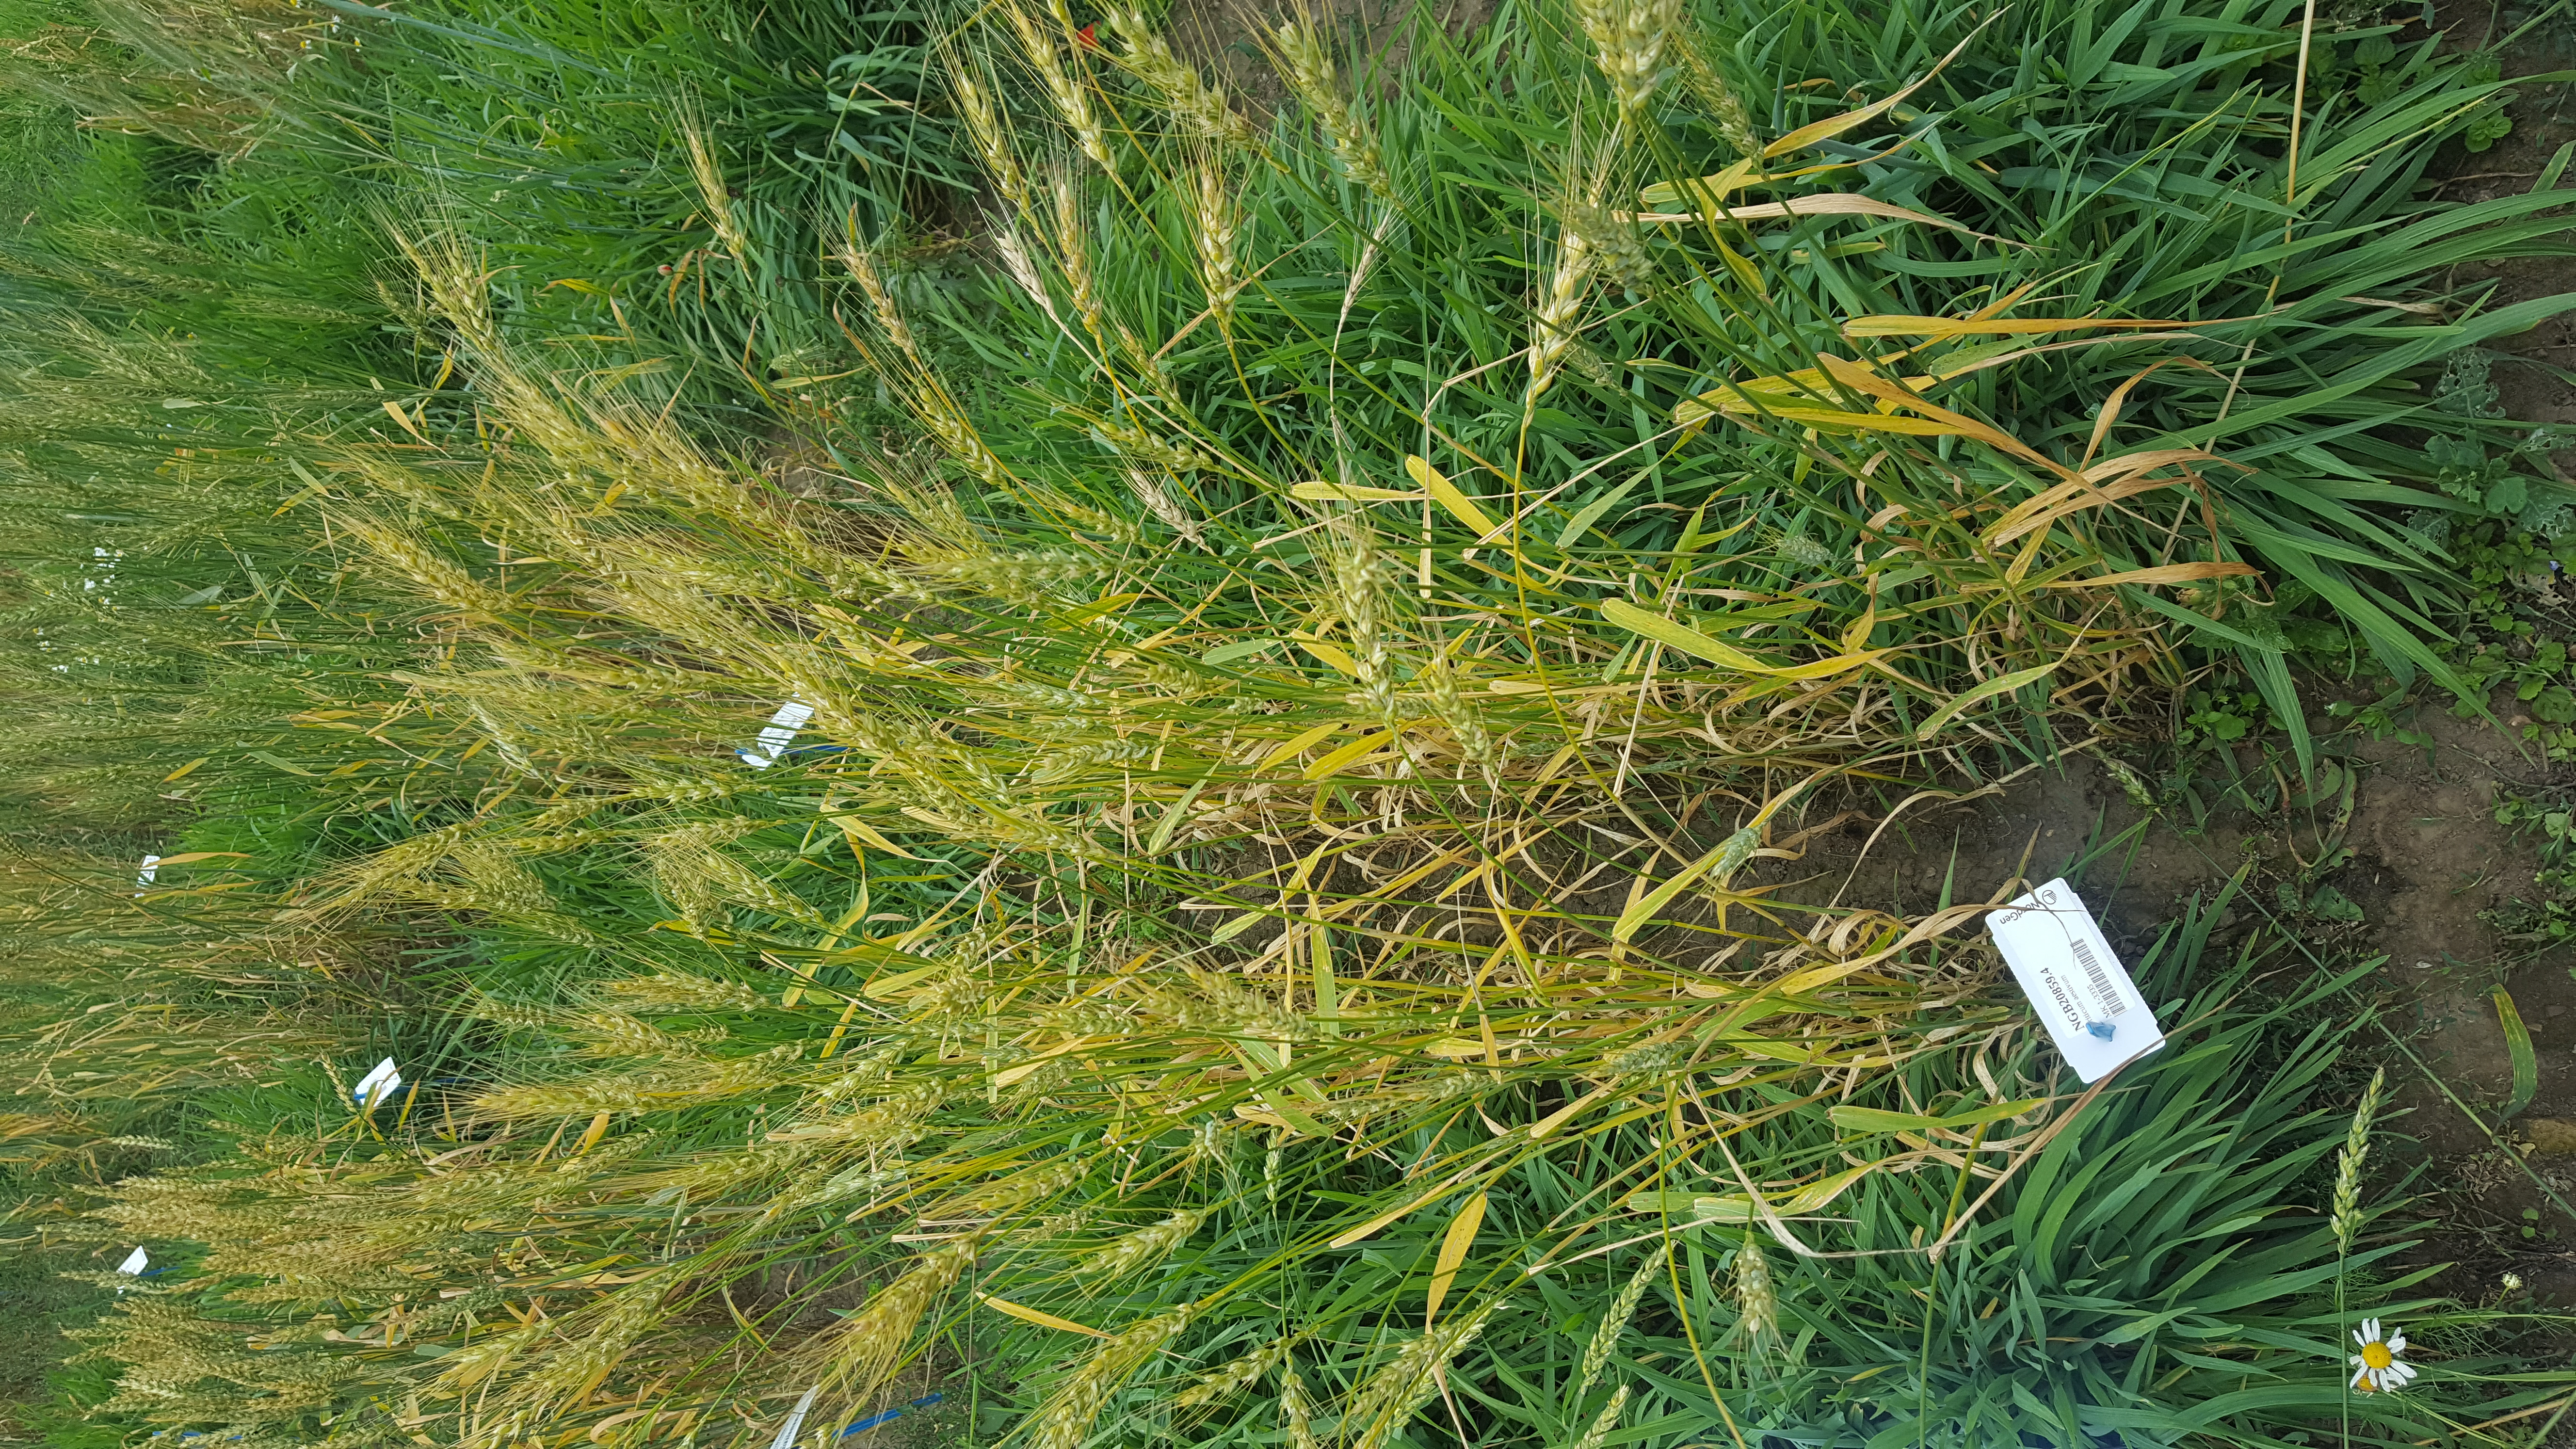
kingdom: Plantae
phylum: Tracheophyta
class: Liliopsida
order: Poales
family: Poaceae
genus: Triticum
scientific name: Triticum aestivum
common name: Common wheat
